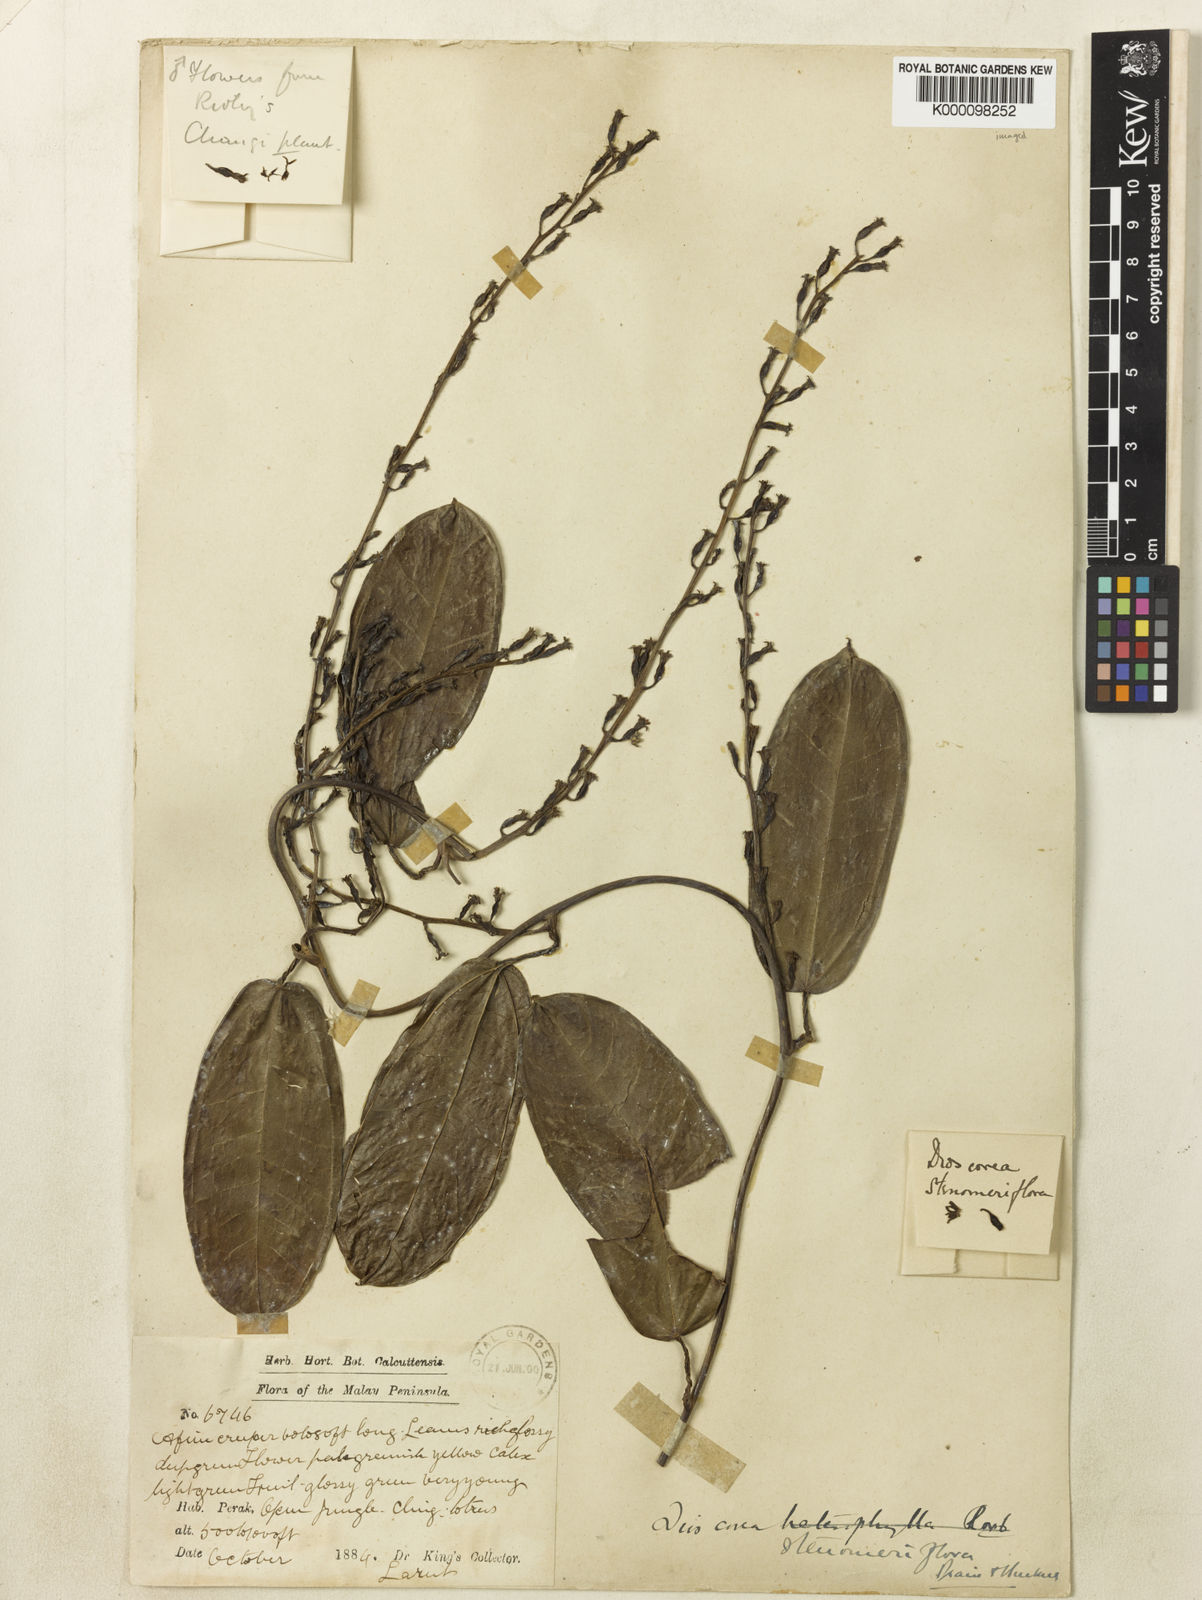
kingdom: Plantae
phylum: Tracheophyta
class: Liliopsida
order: Dioscoreales
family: Dioscoreaceae
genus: Dioscorea
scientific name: Dioscorea stenomeriflora
